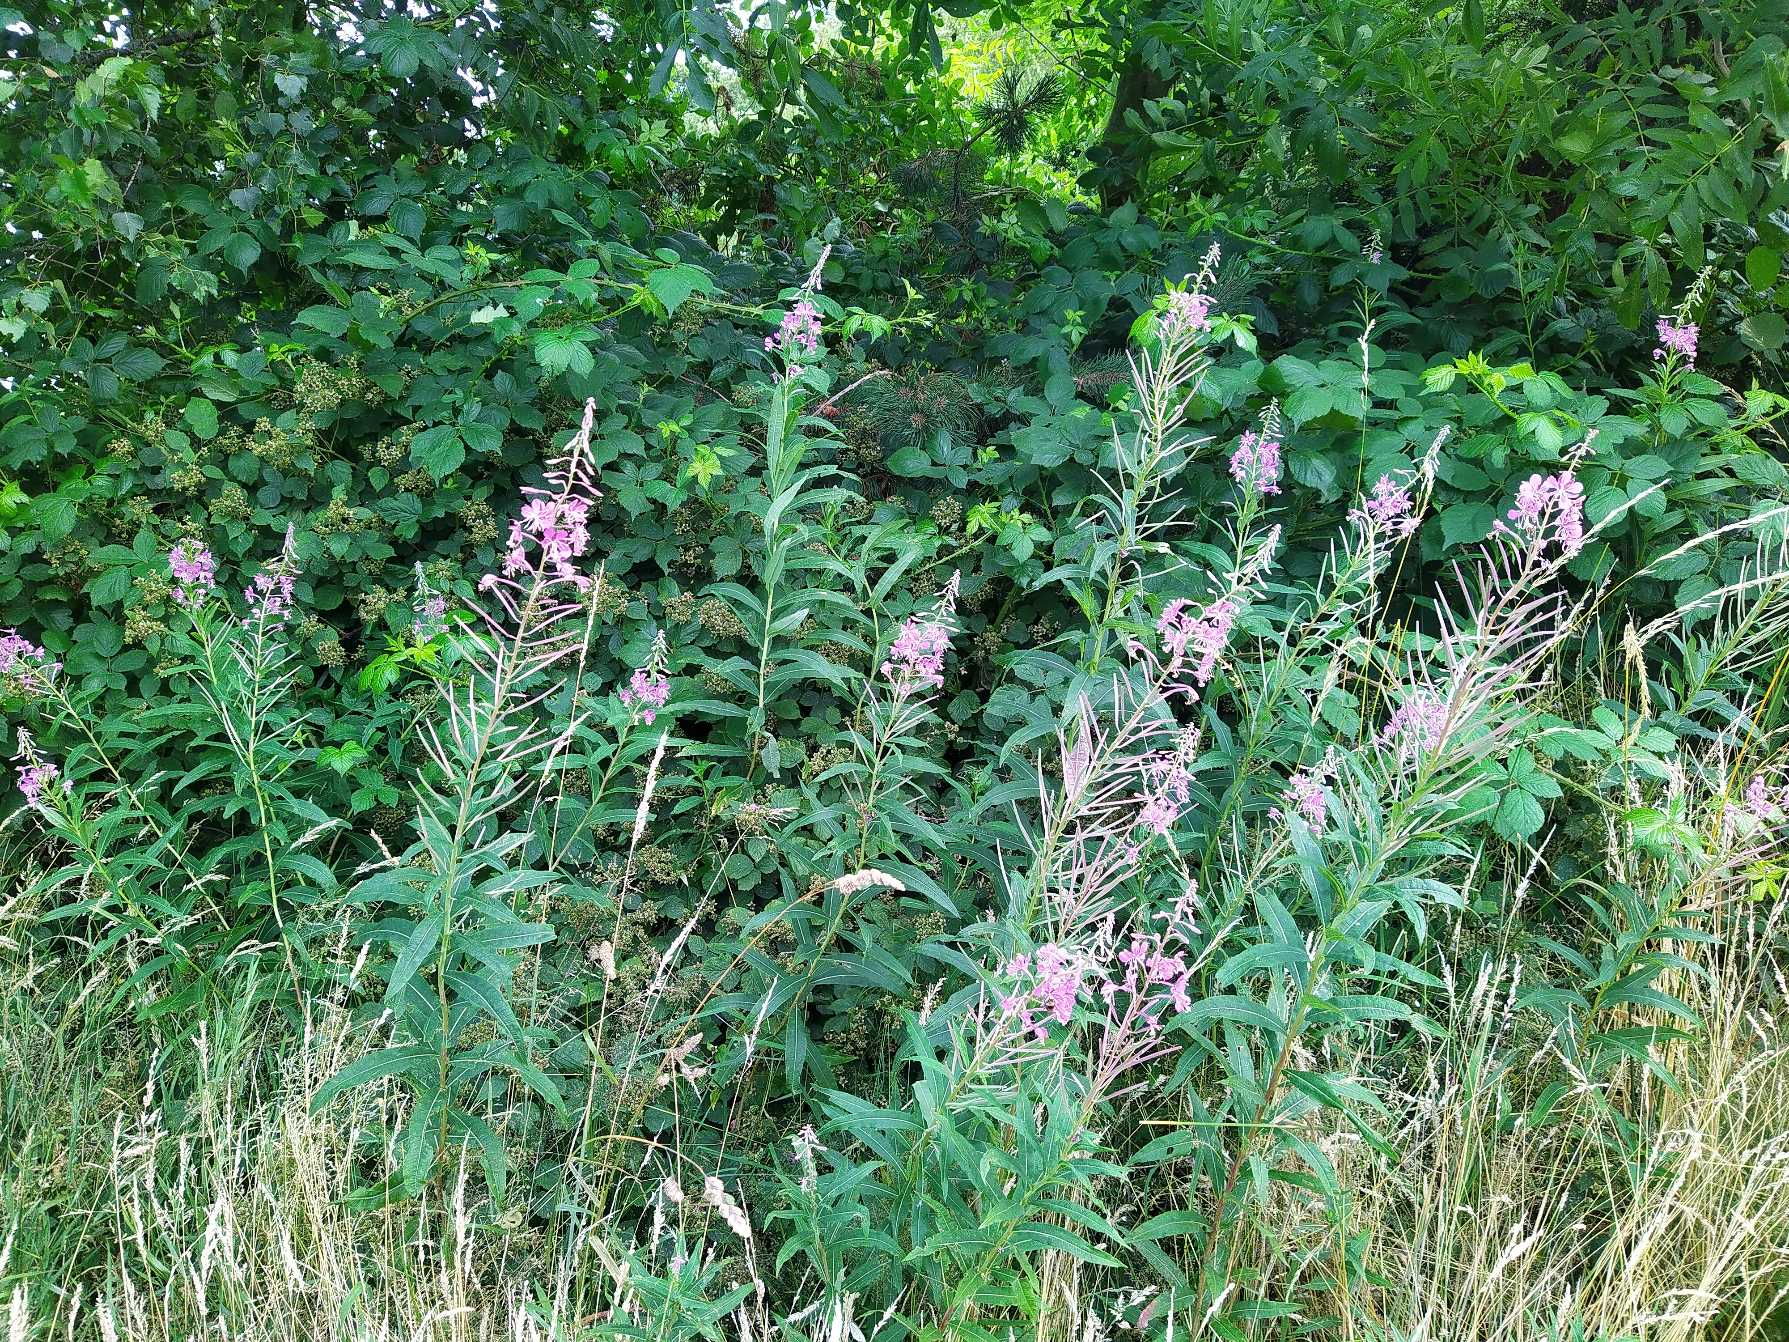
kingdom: Plantae
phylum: Tracheophyta
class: Magnoliopsida
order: Myrtales
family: Onagraceae
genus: Chamaenerion
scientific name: Chamaenerion angustifolium
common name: Gederams
